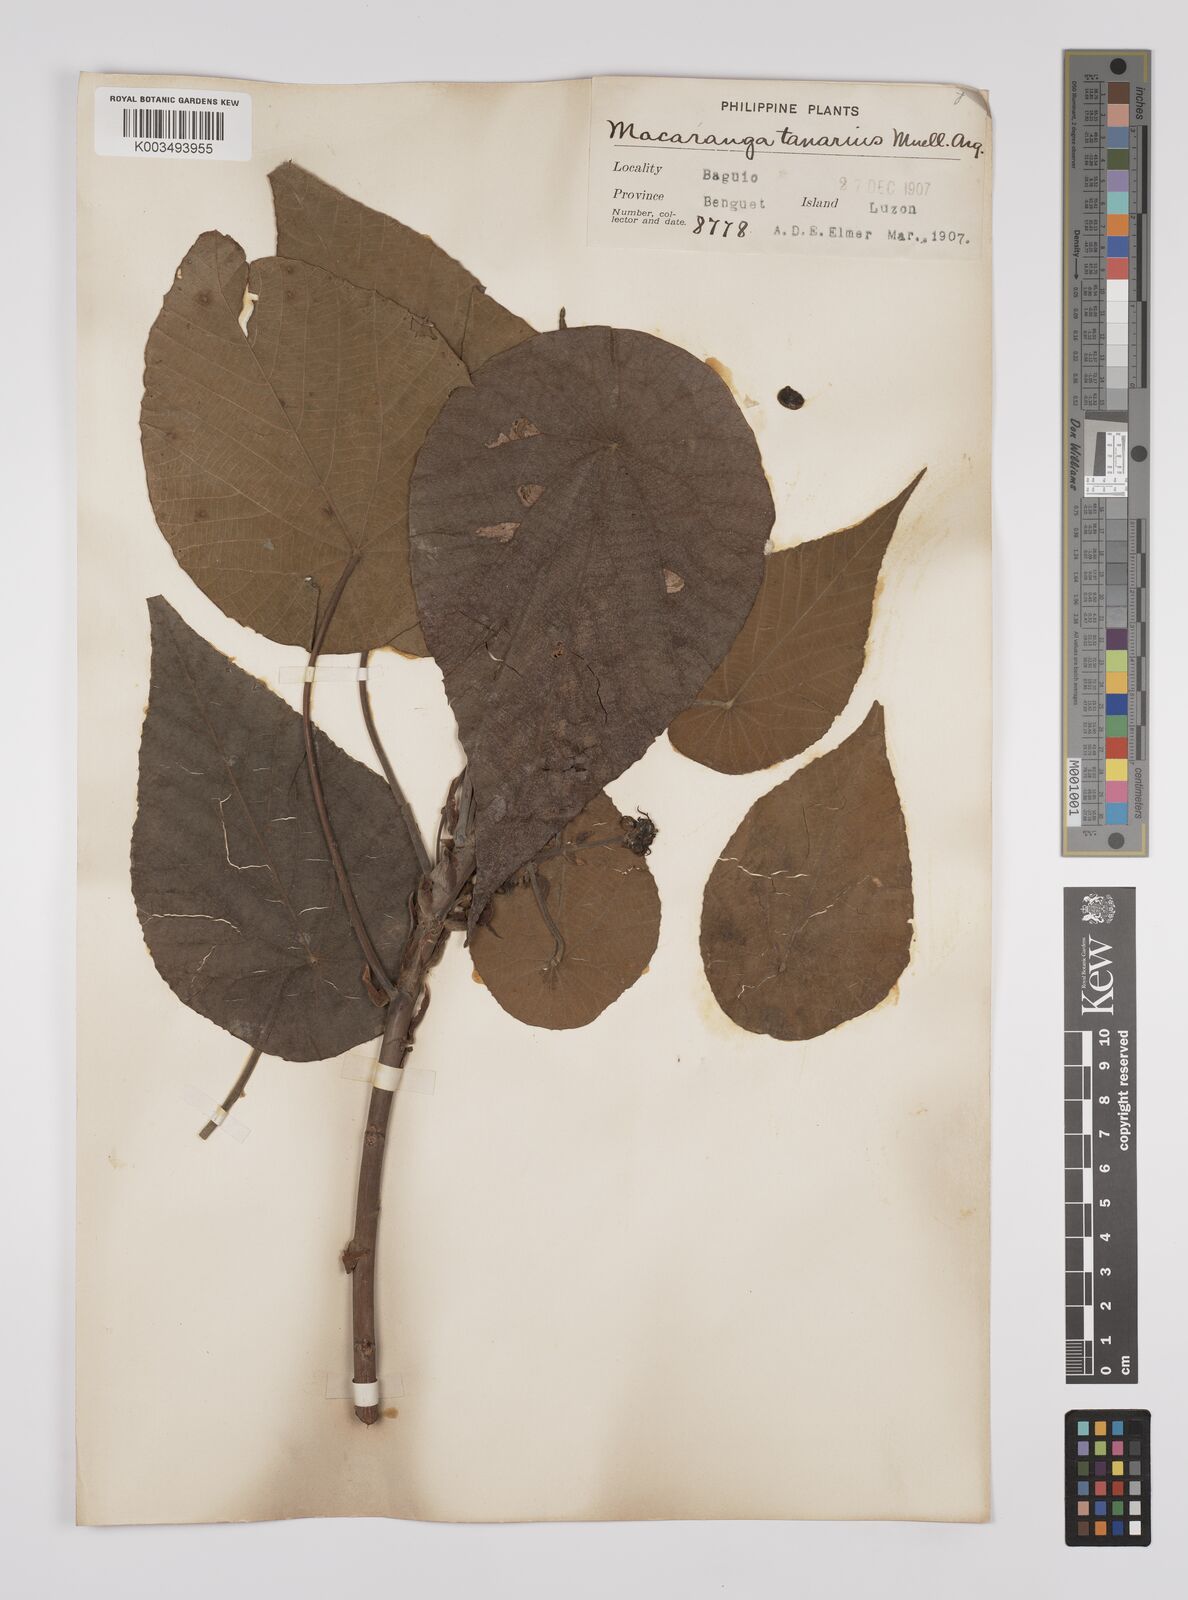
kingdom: Plantae
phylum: Tracheophyta
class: Magnoliopsida
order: Malpighiales
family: Euphorbiaceae
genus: Macaranga
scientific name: Macaranga tanarius
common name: Parasol leaf tree
